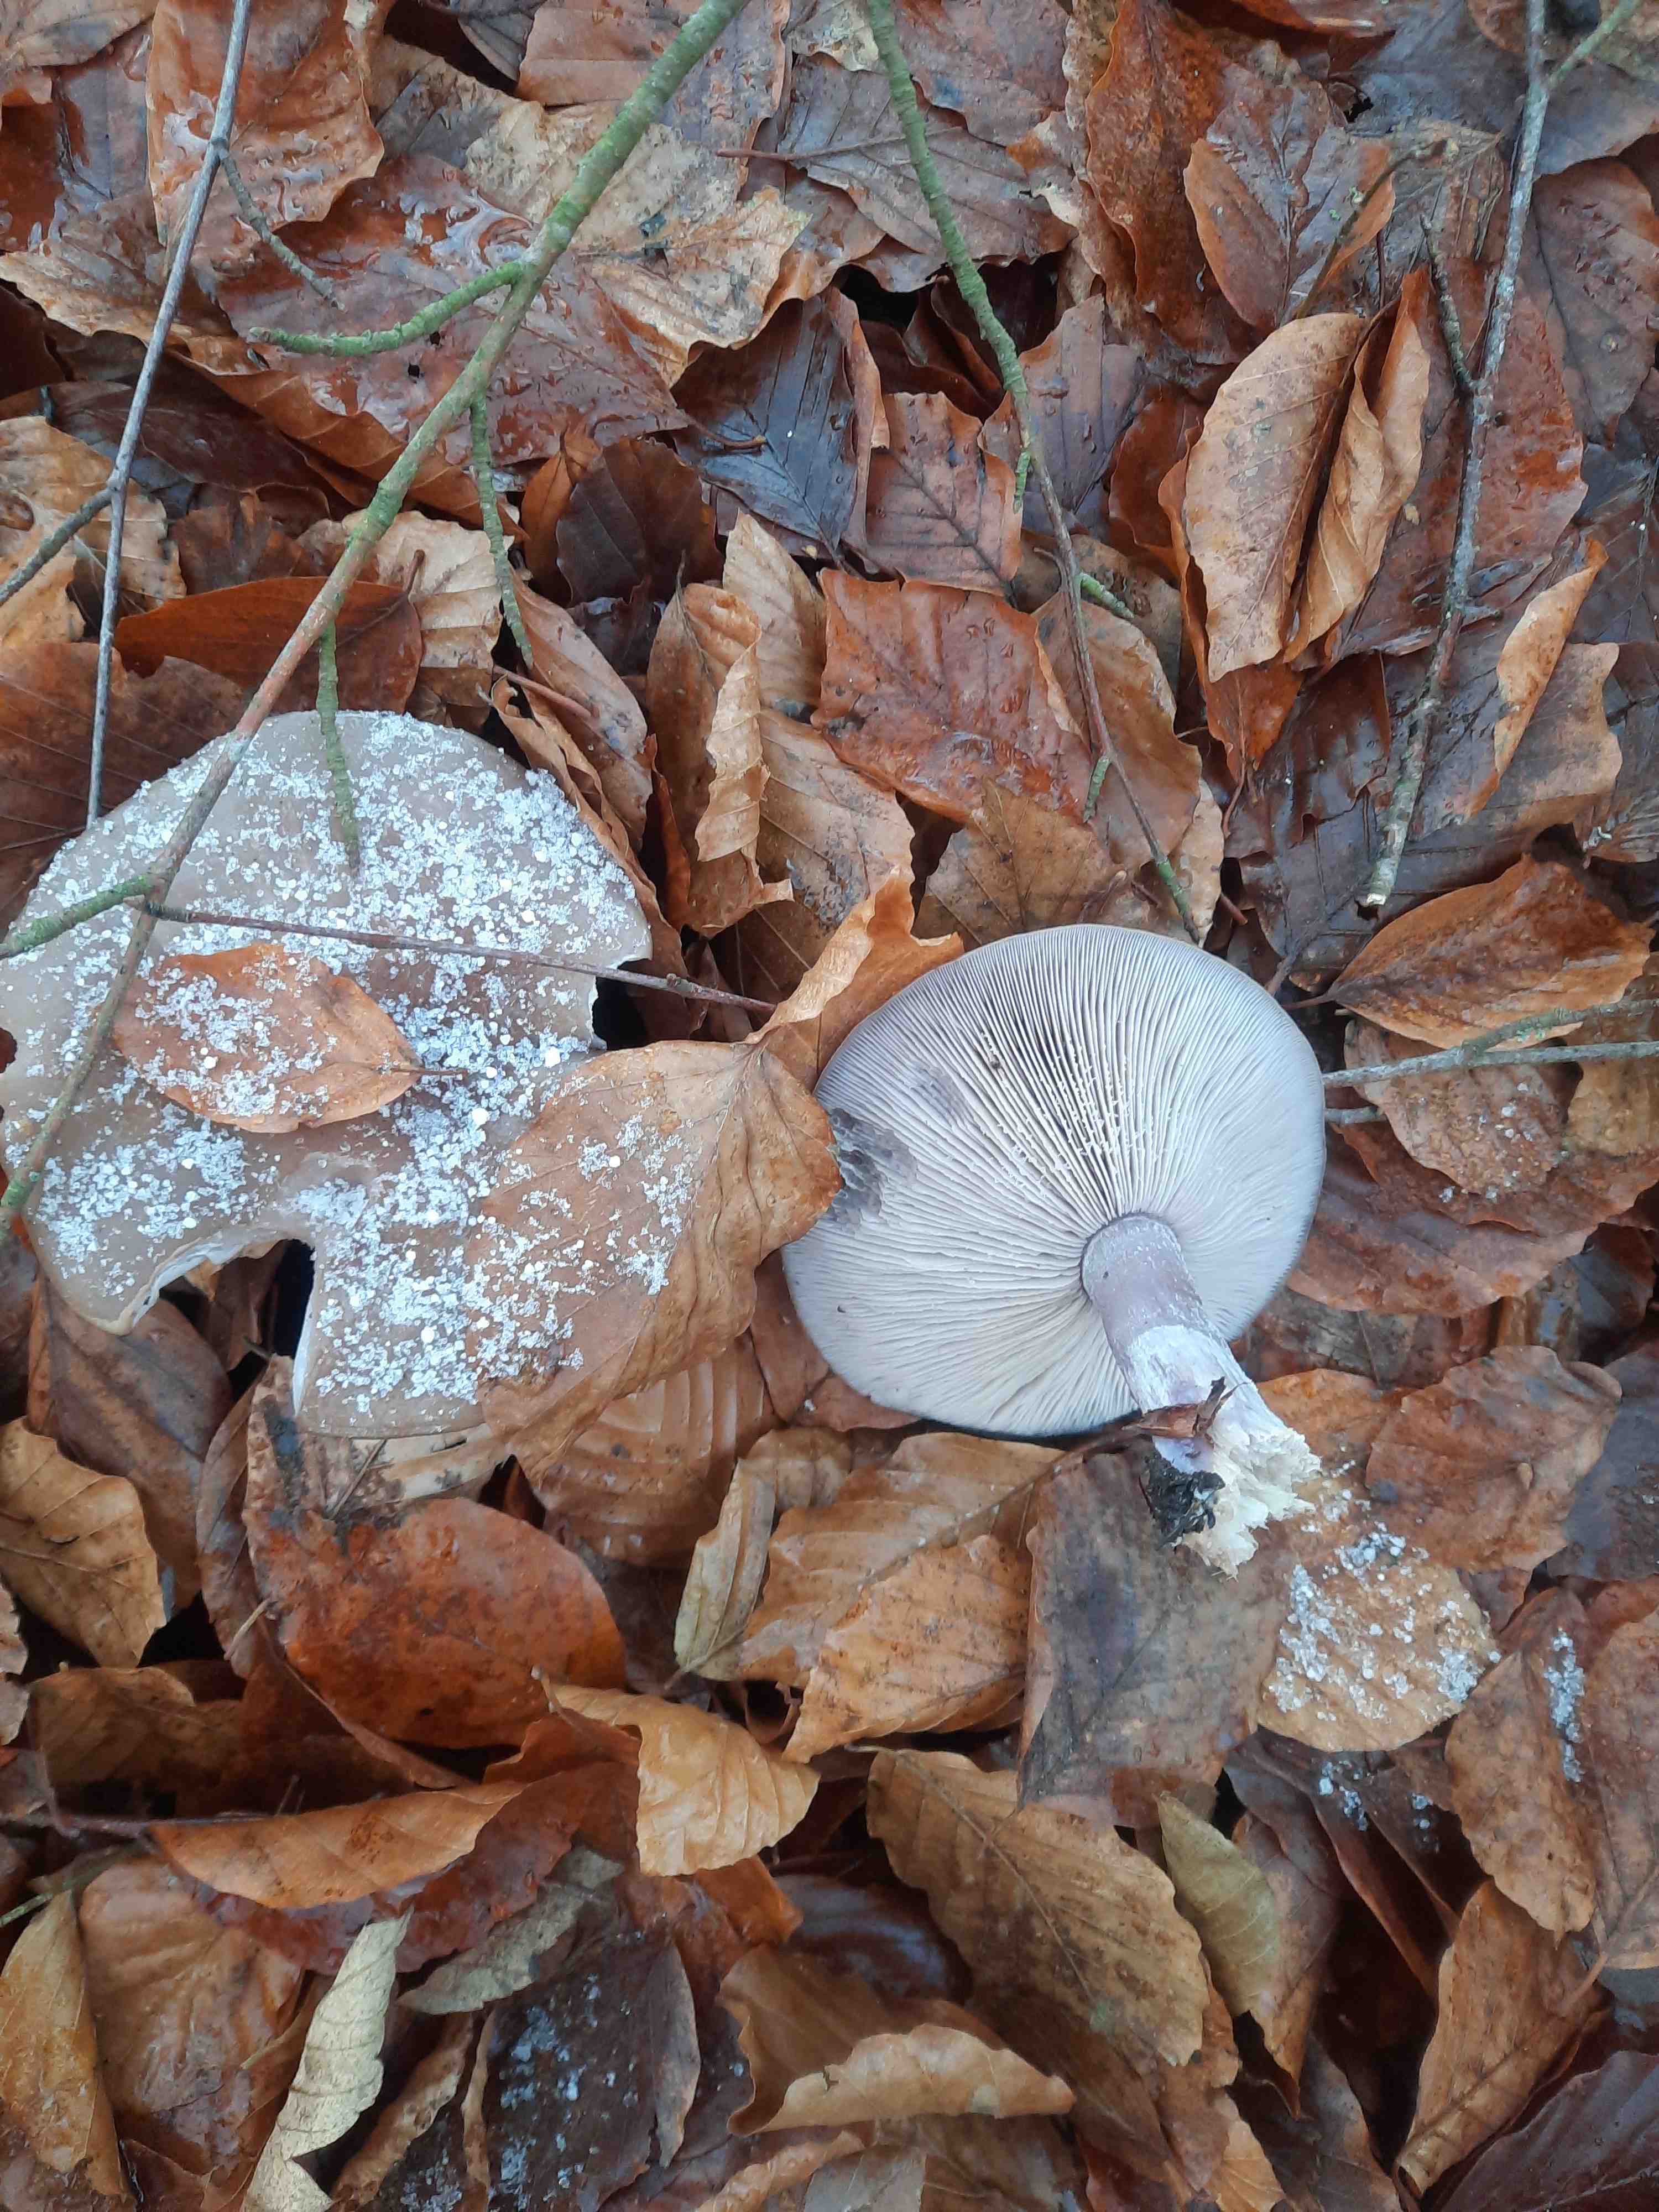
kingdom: Fungi
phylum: Basidiomycota
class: Agaricomycetes
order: Agaricales
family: Tricholomataceae
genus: Lepista
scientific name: Lepista nuda
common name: violet hekseringshat
